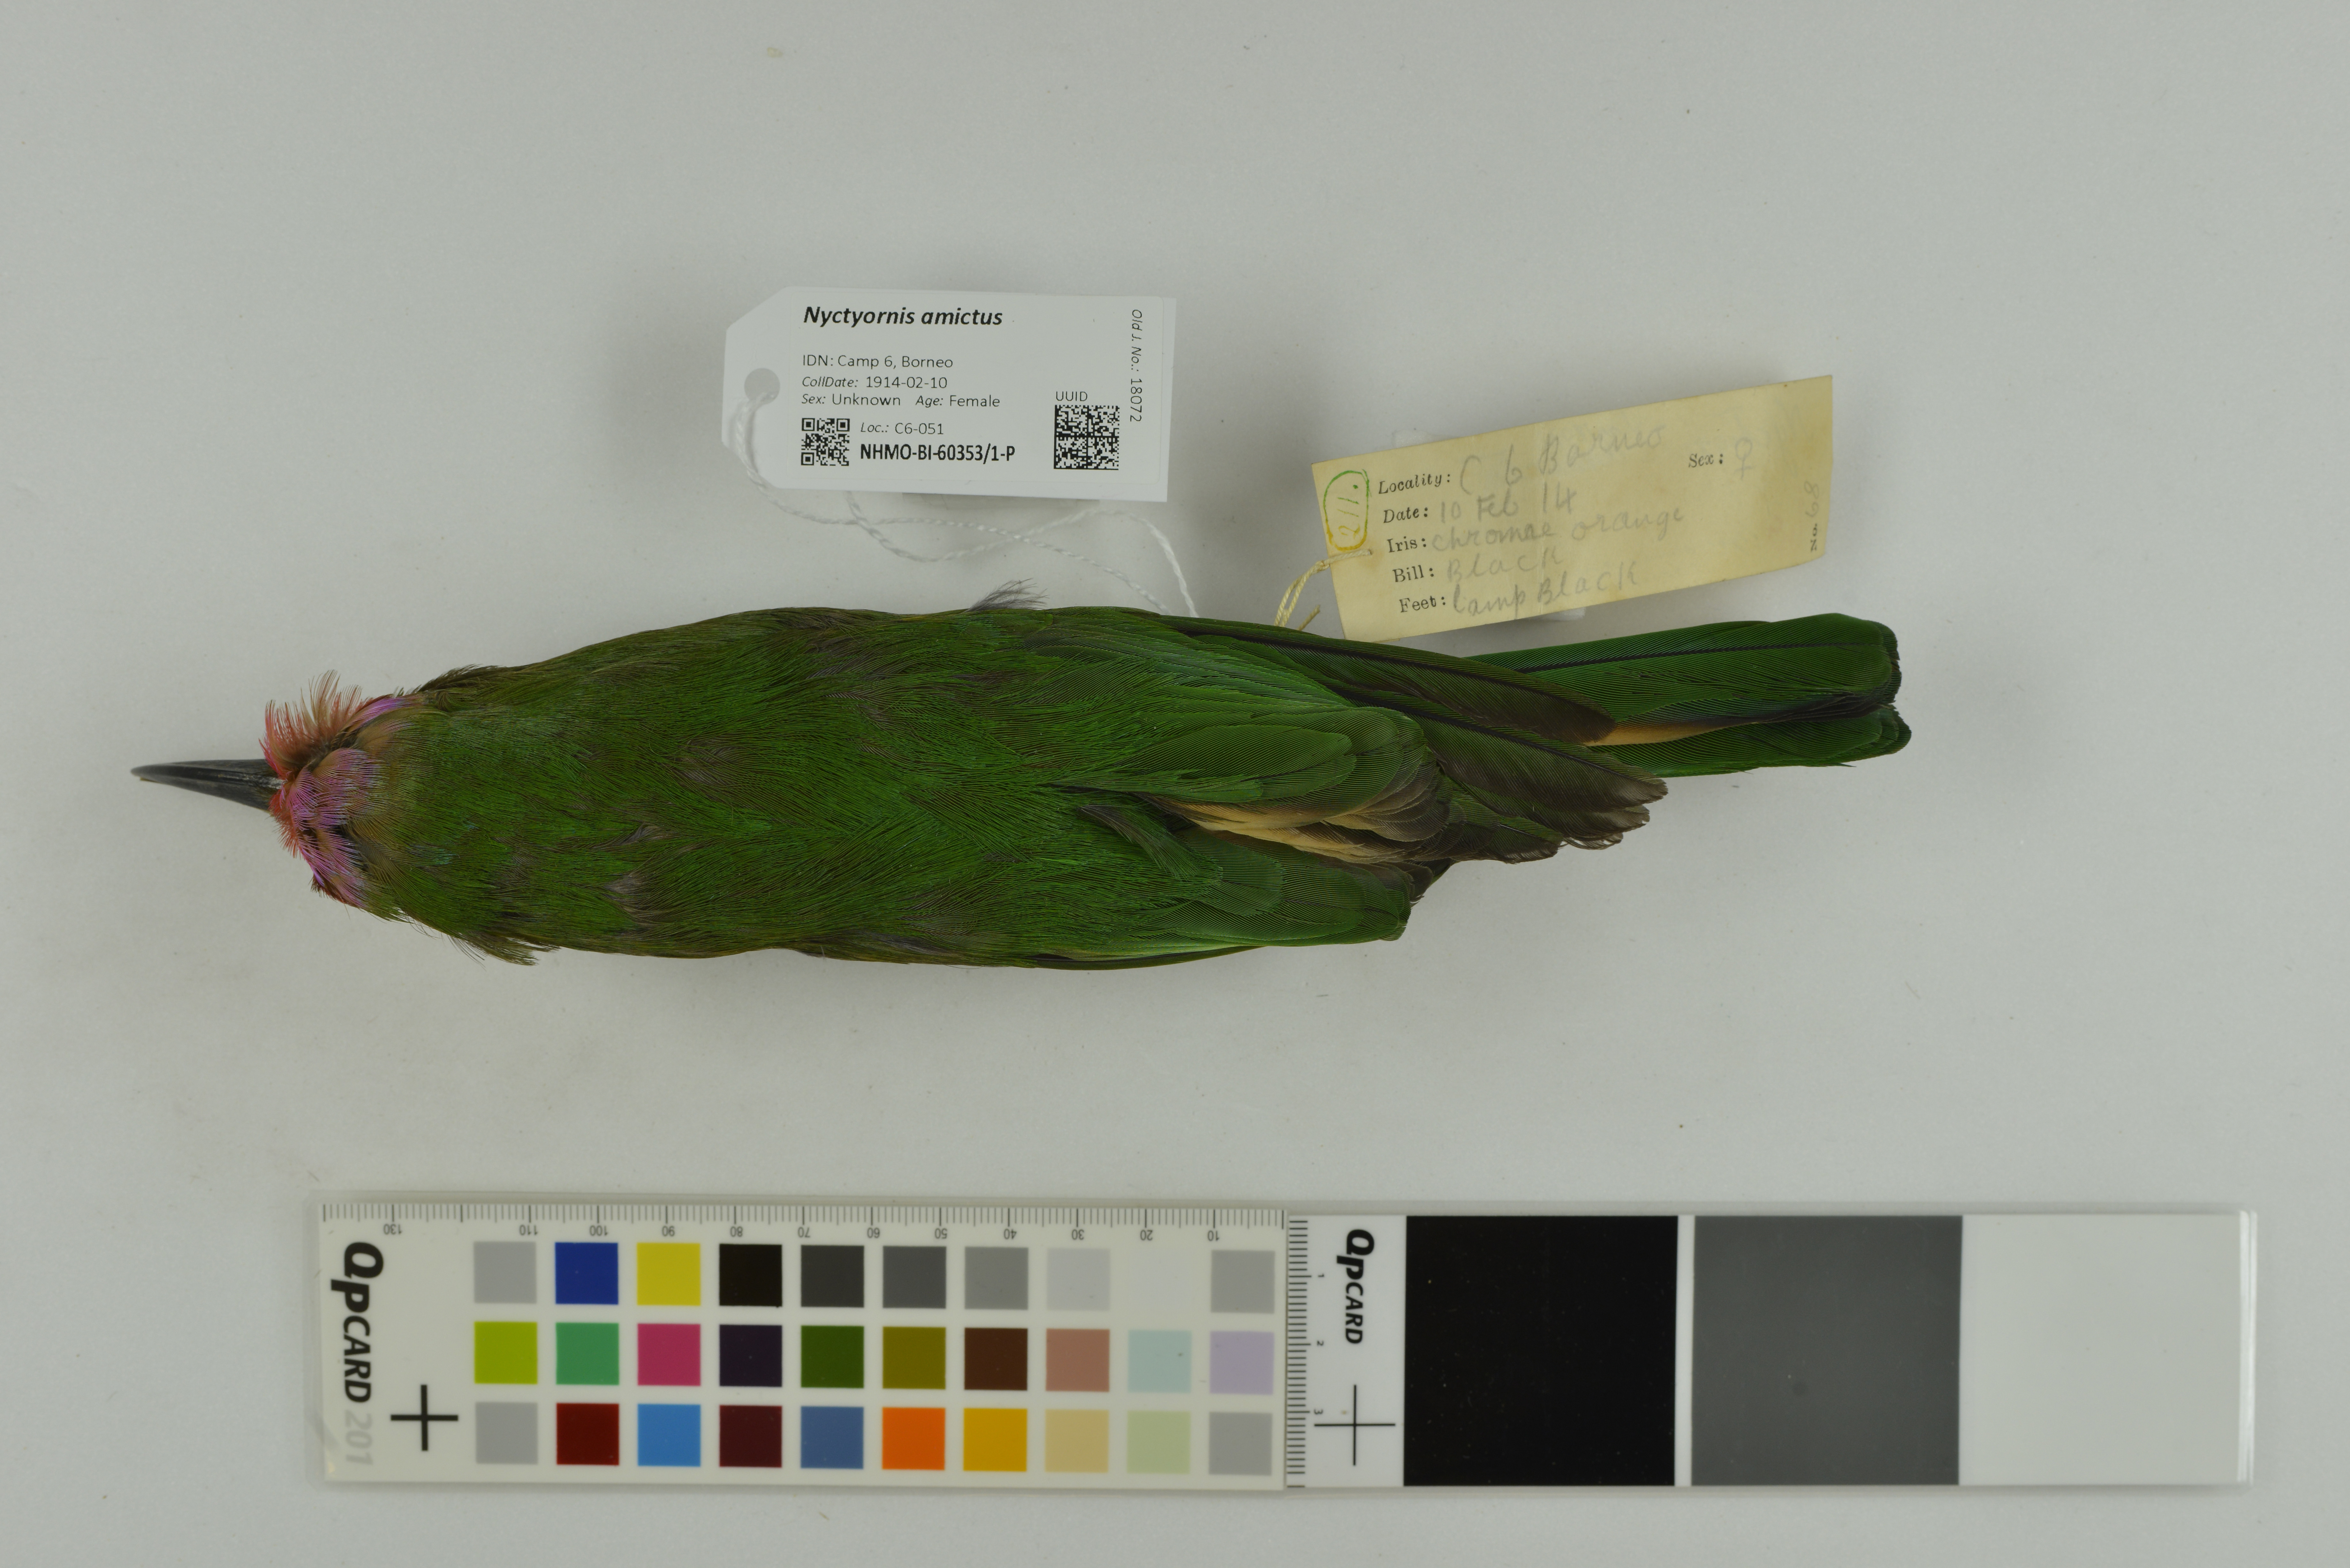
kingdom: Animalia
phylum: Chordata
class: Aves
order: Coraciiformes
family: Meropidae
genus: Nyctyornis
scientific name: Nyctyornis amictus
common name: Red-bearded bee-eater
